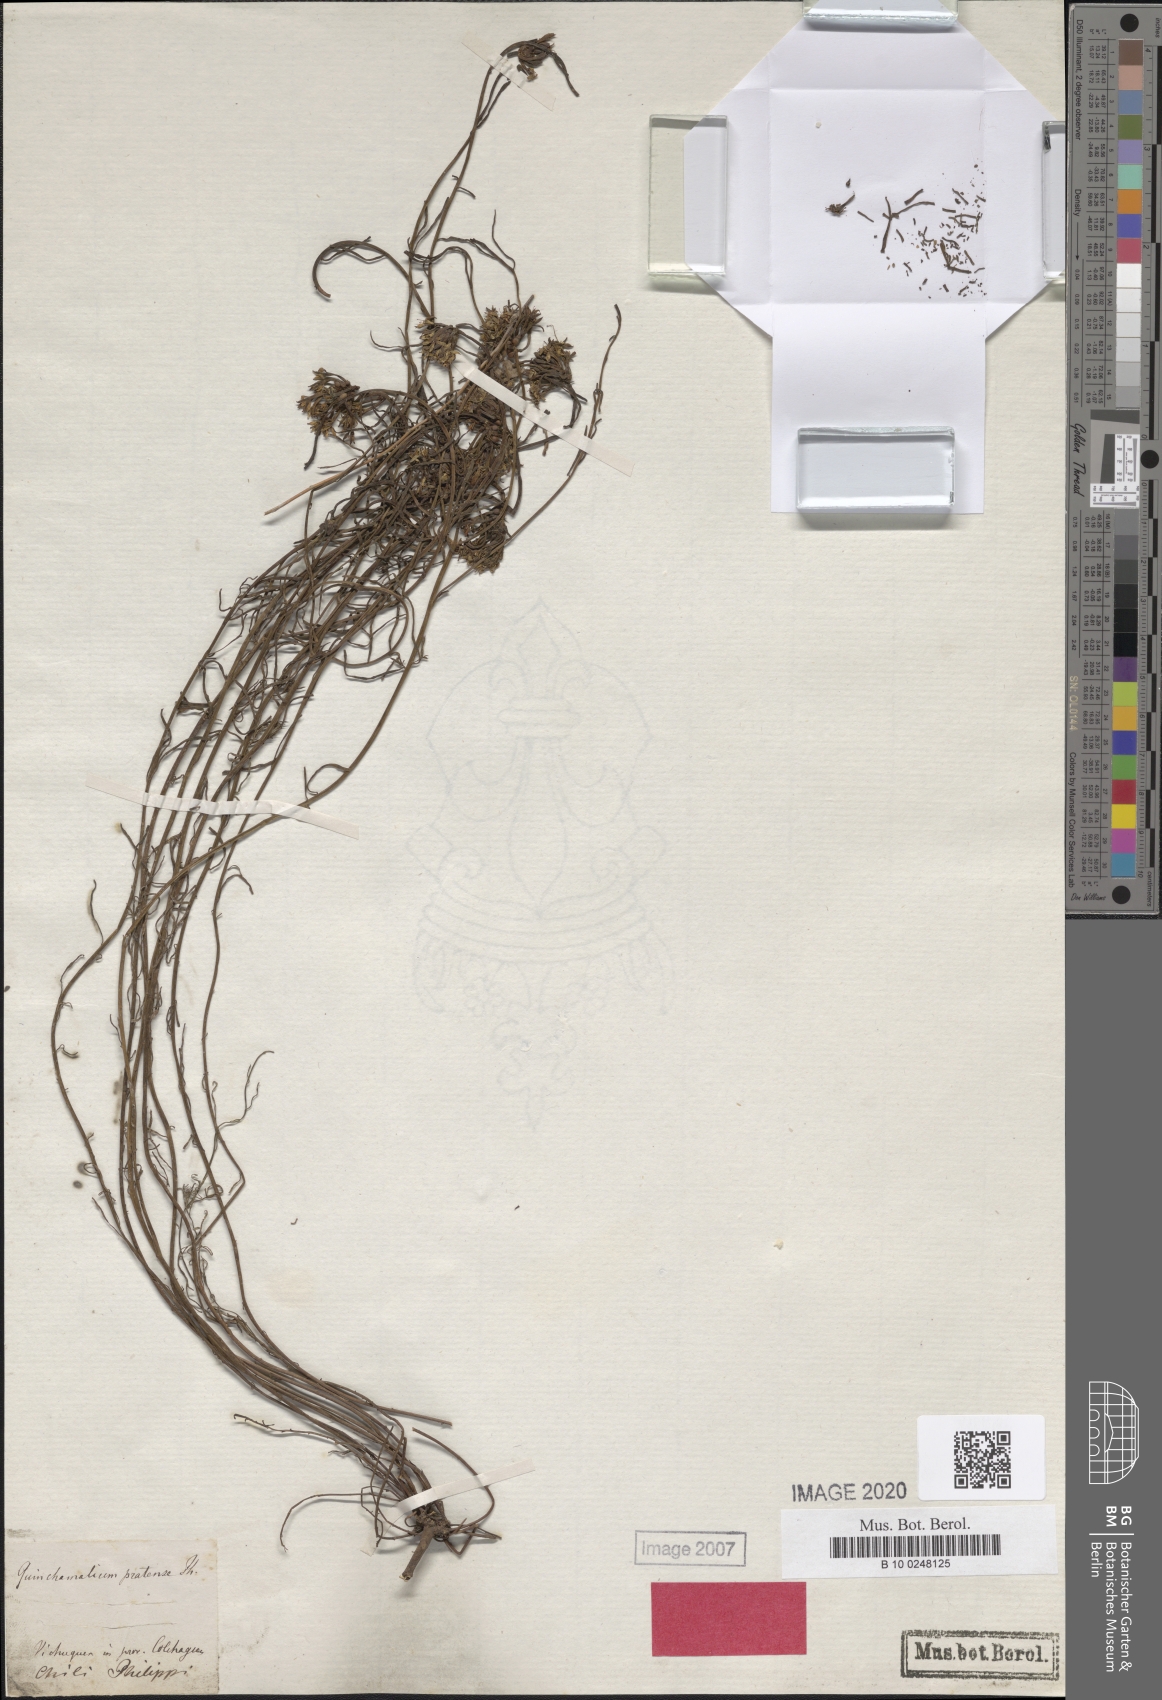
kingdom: Plantae
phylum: Tracheophyta
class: Magnoliopsida
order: Santalales
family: Schoepfiaceae
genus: Quinchamalium
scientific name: Quinchamalium chilense
